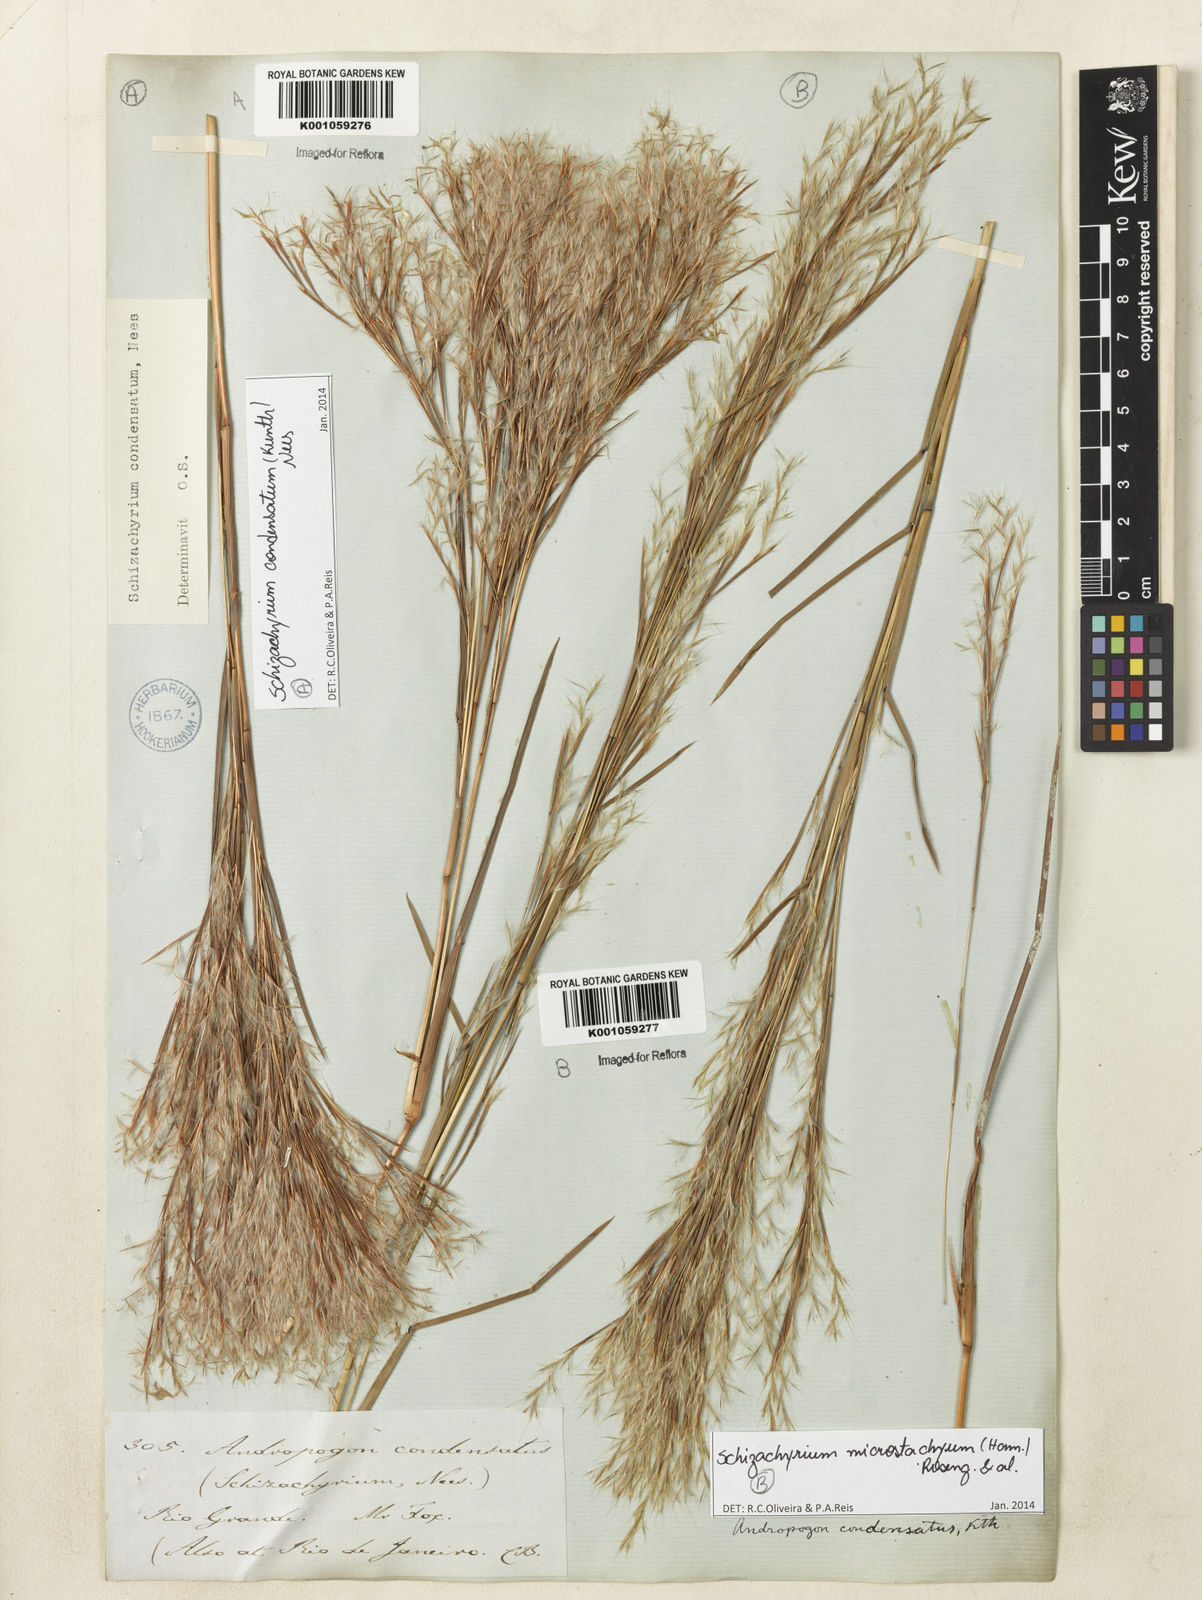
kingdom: Plantae
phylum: Tracheophyta
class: Liliopsida
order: Poales
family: Poaceae
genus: Schizachyrium
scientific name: Schizachyrium
